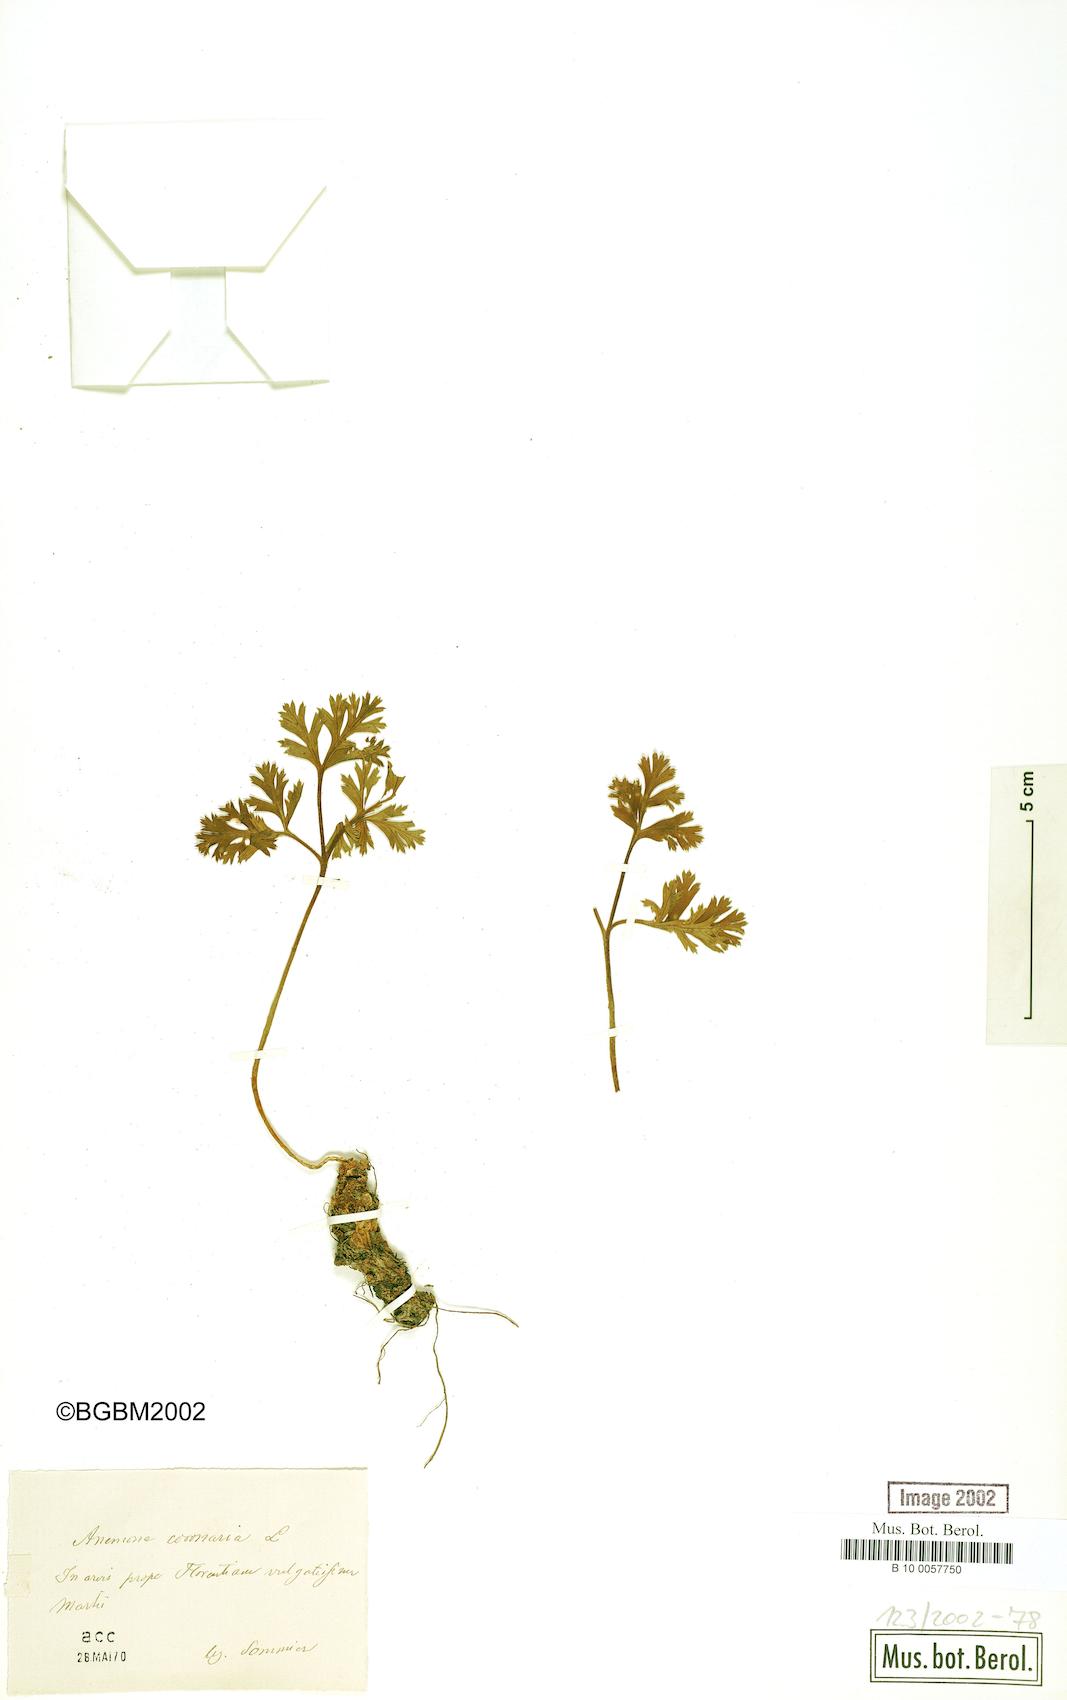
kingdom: Plantae
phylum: Tracheophyta
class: Magnoliopsida
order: Ranunculales
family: Ranunculaceae
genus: Anemone
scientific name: Anemone coronaria
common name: Poppy anemone
